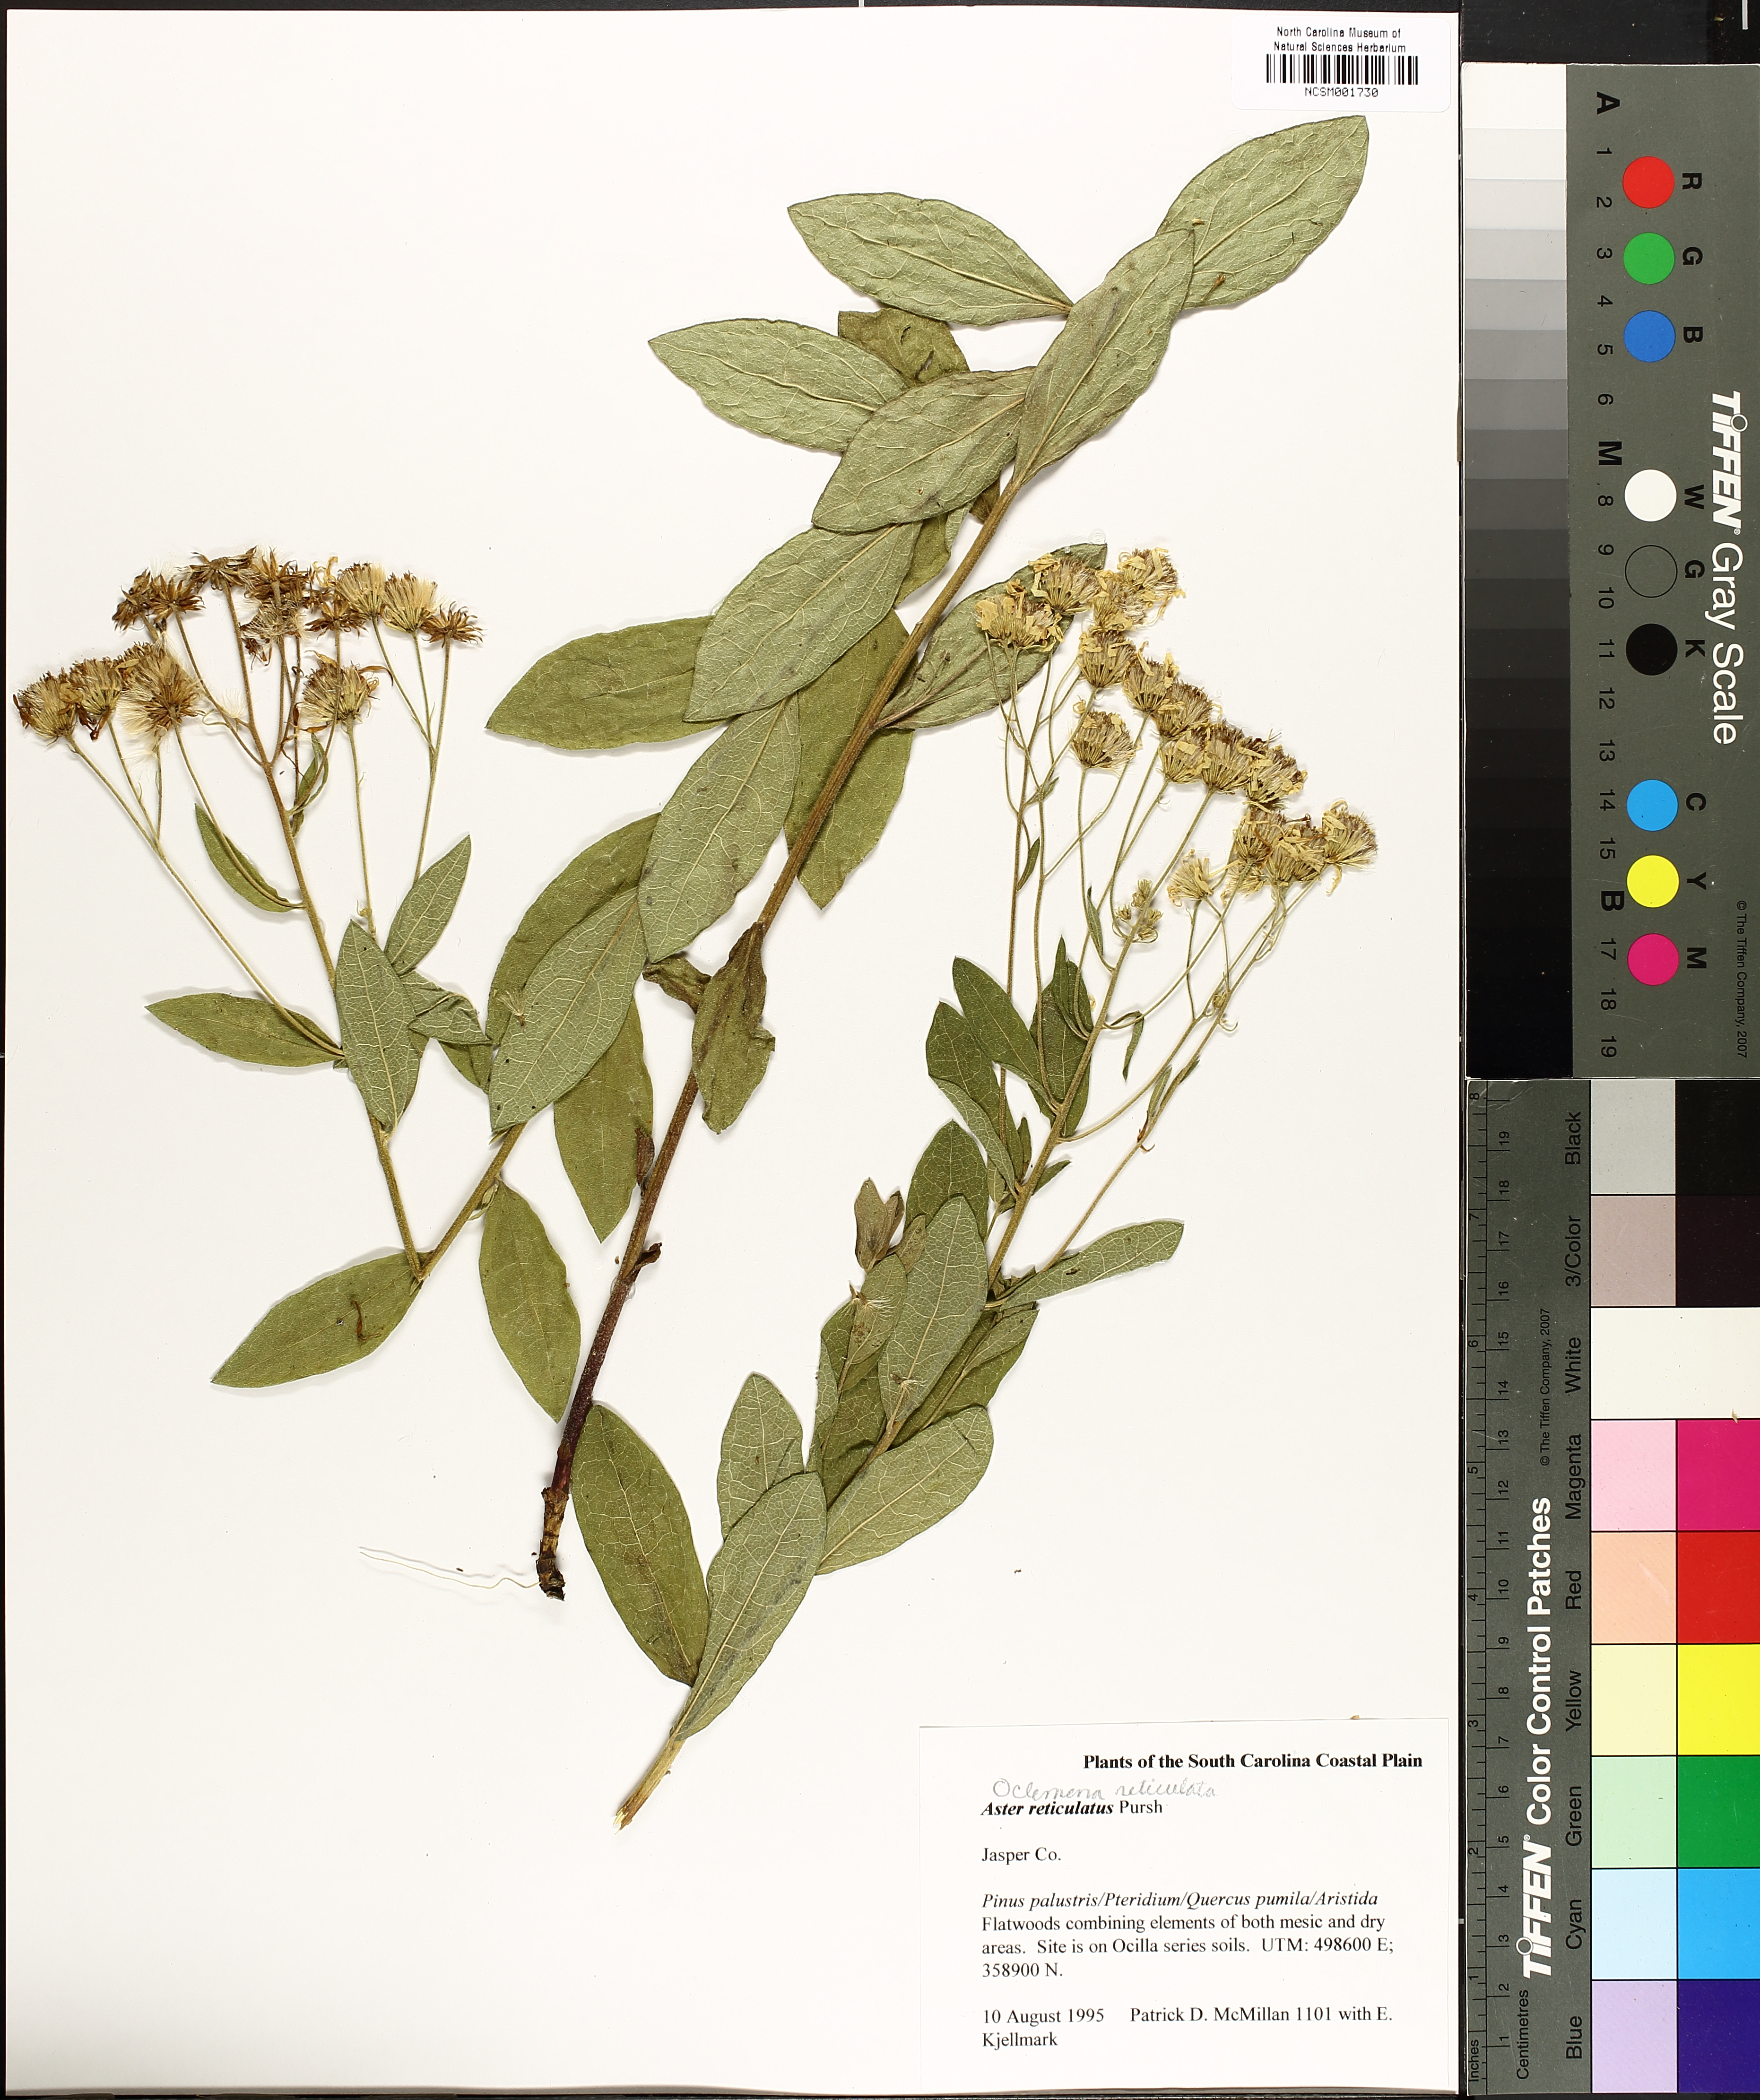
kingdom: Plantae
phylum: Tracheophyta
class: Magnoliopsida
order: Asterales
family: Asteraceae
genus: Oclemena
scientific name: Oclemena reticulata
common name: Pinebarren aster
